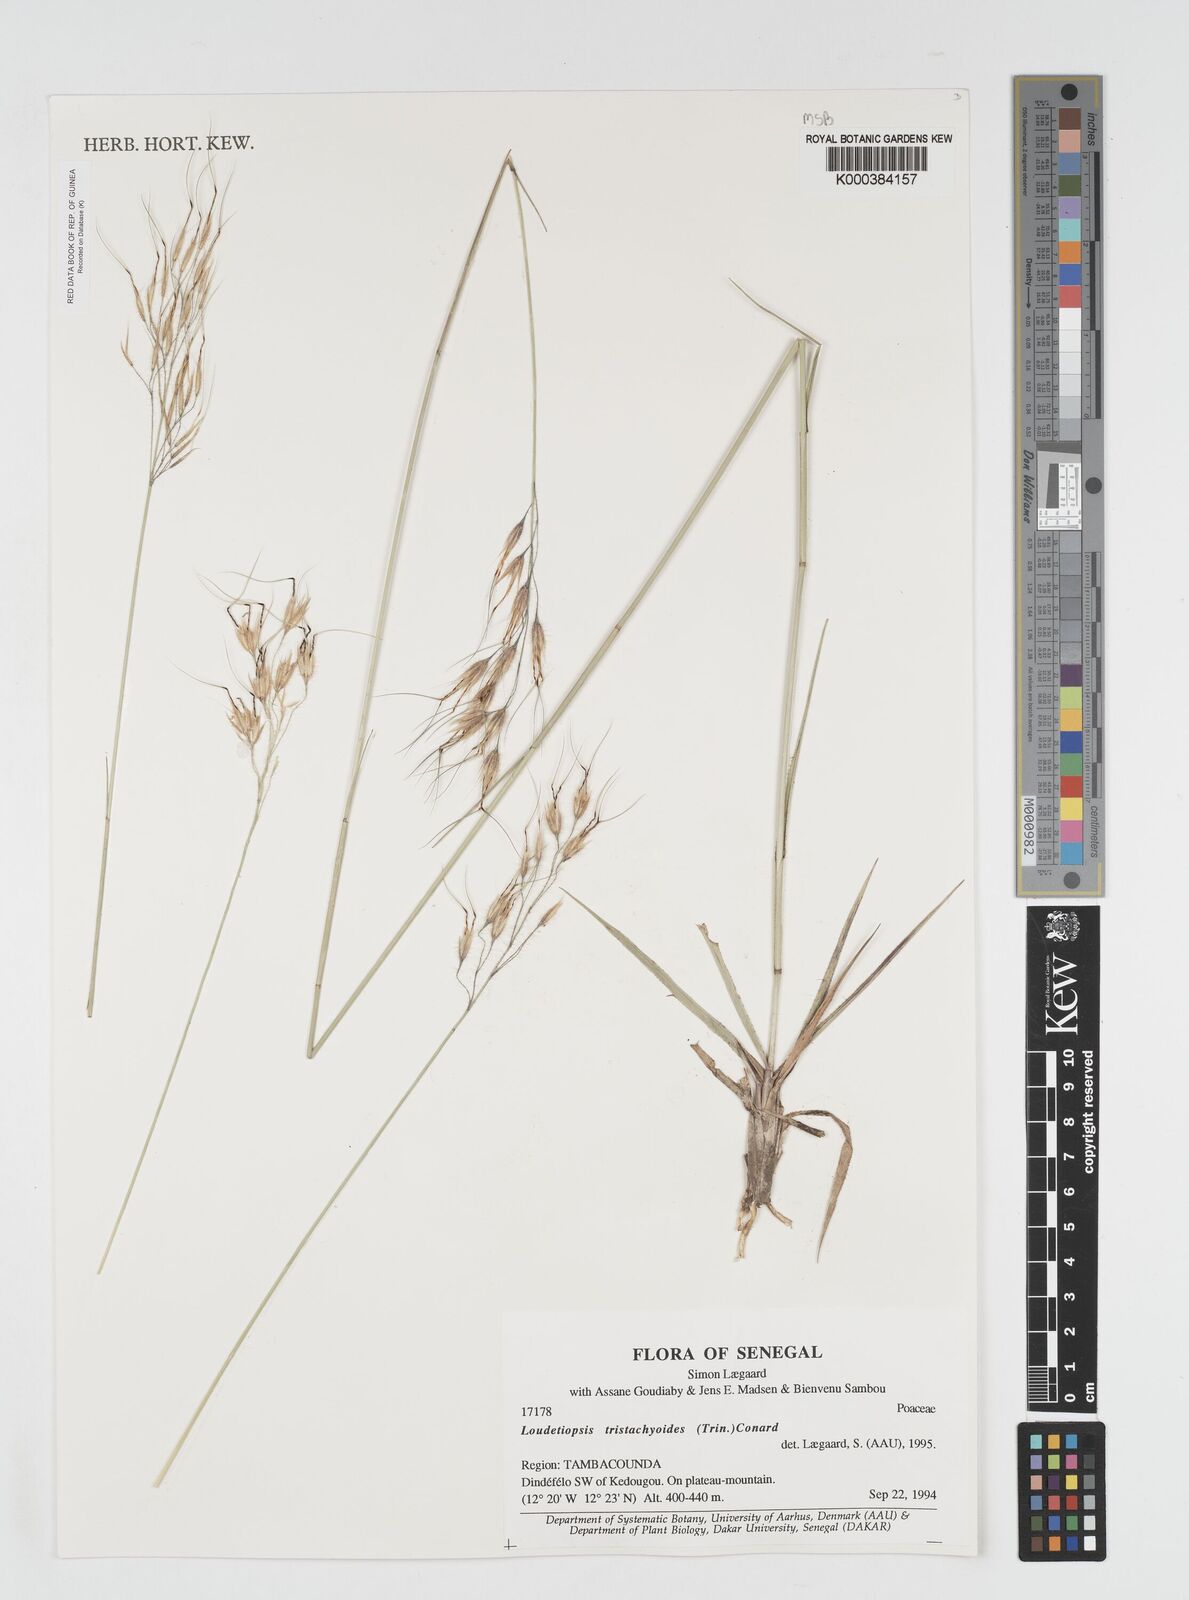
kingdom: Plantae
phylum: Tracheophyta
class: Liliopsida
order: Poales
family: Poaceae
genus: Dilophotriche
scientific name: Dilophotriche
